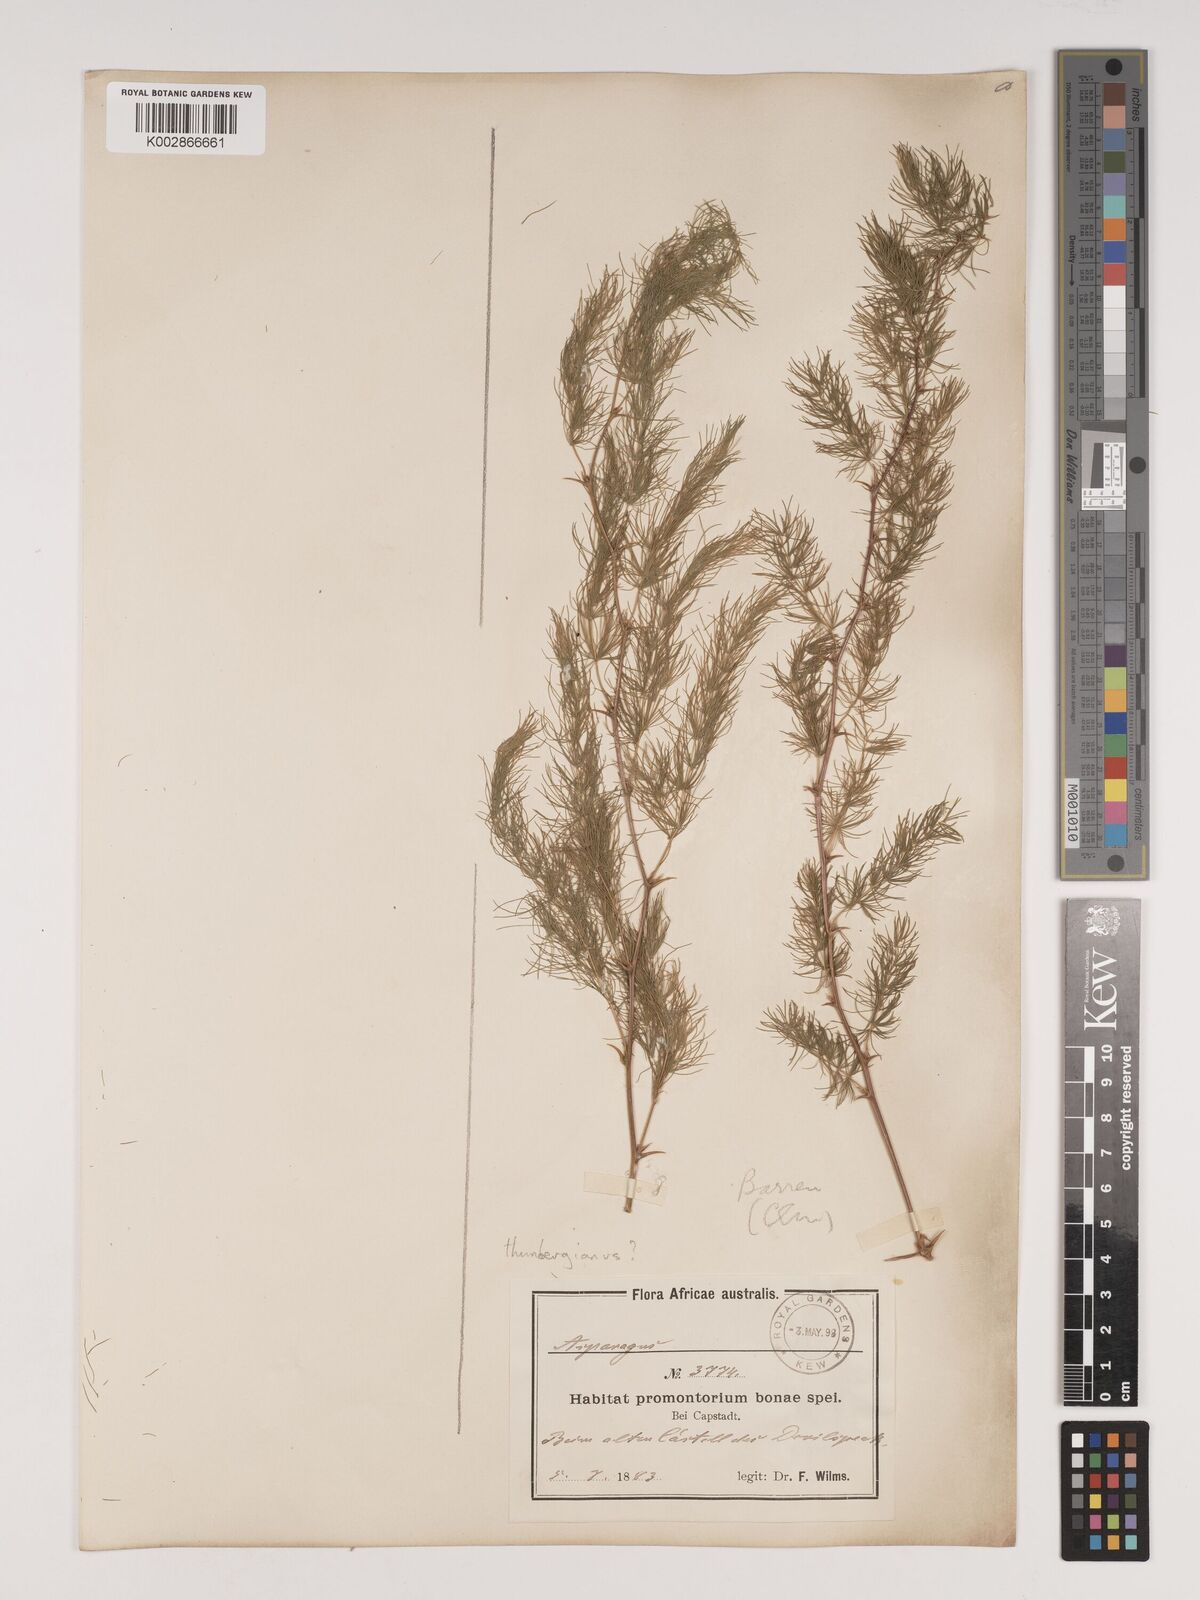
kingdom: Plantae
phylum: Tracheophyta
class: Liliopsida
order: Asparagales
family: Asparagaceae
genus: Asparagus
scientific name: Asparagus rubicundus
